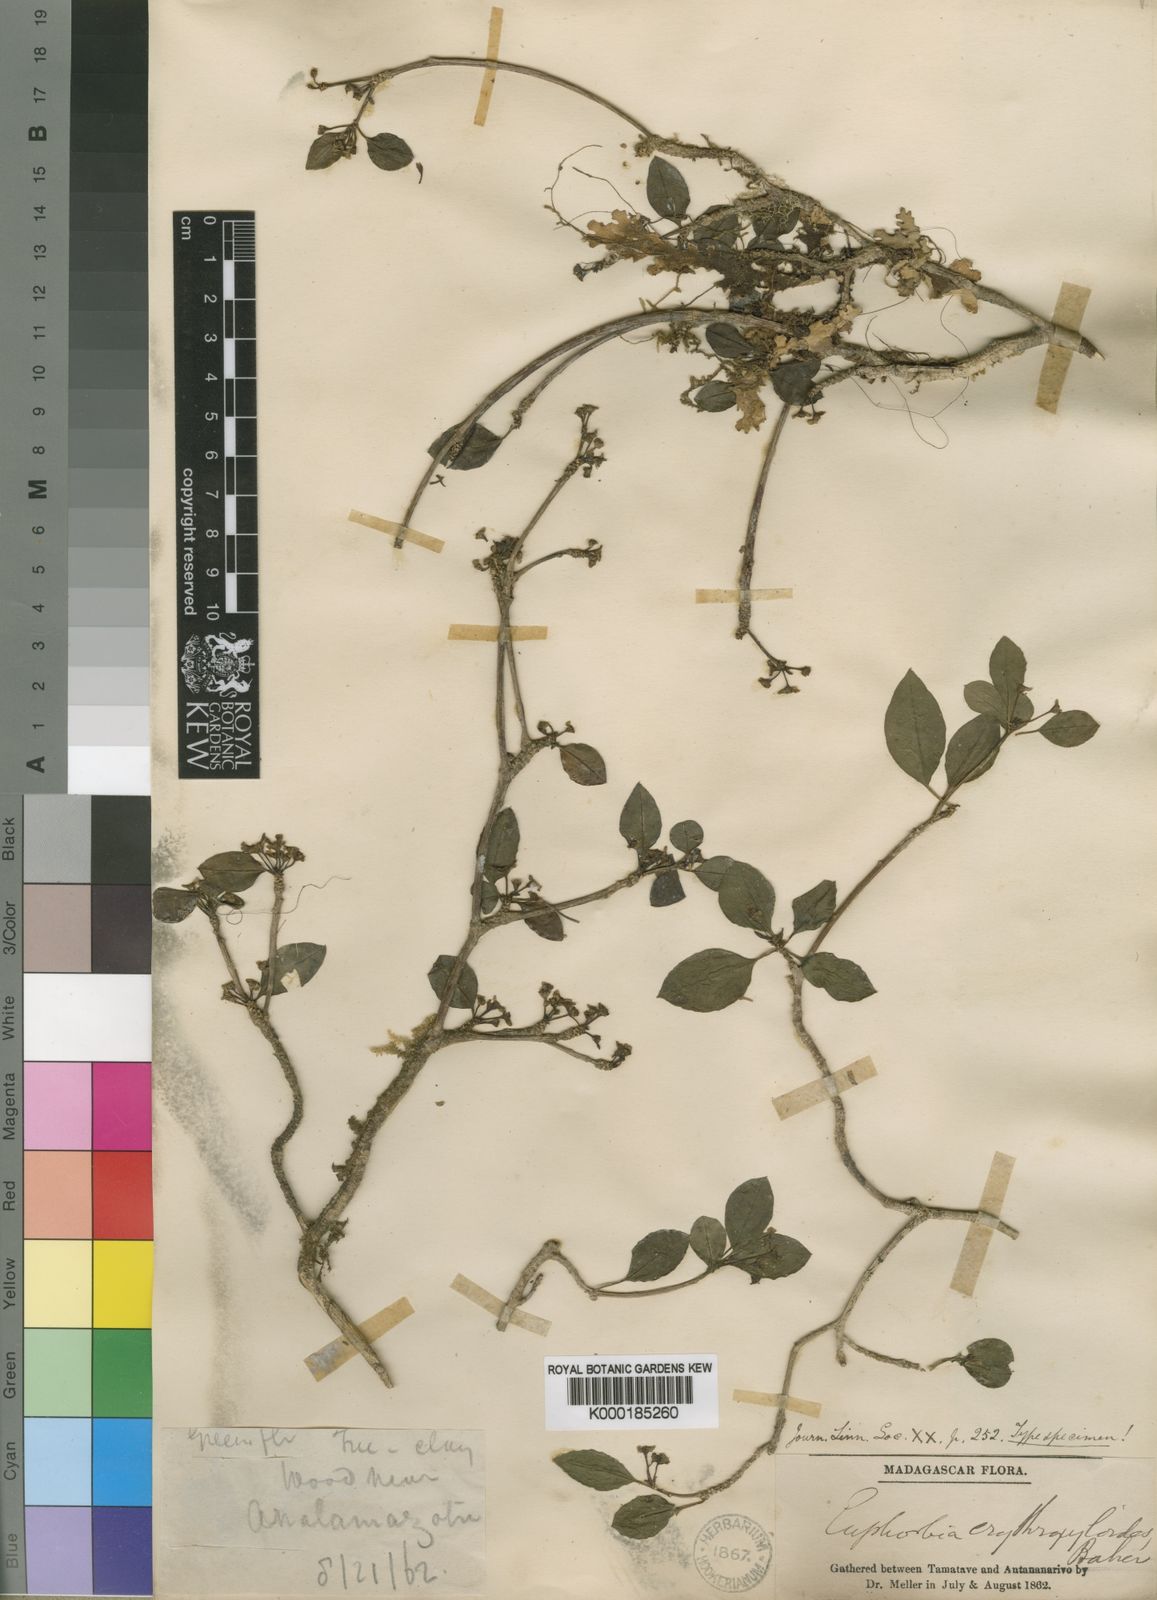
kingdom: Plantae
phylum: Tracheophyta
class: Magnoliopsida
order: Malpighiales
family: Euphorbiaceae
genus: Euphorbia
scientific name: Euphorbia erythroxyloides
